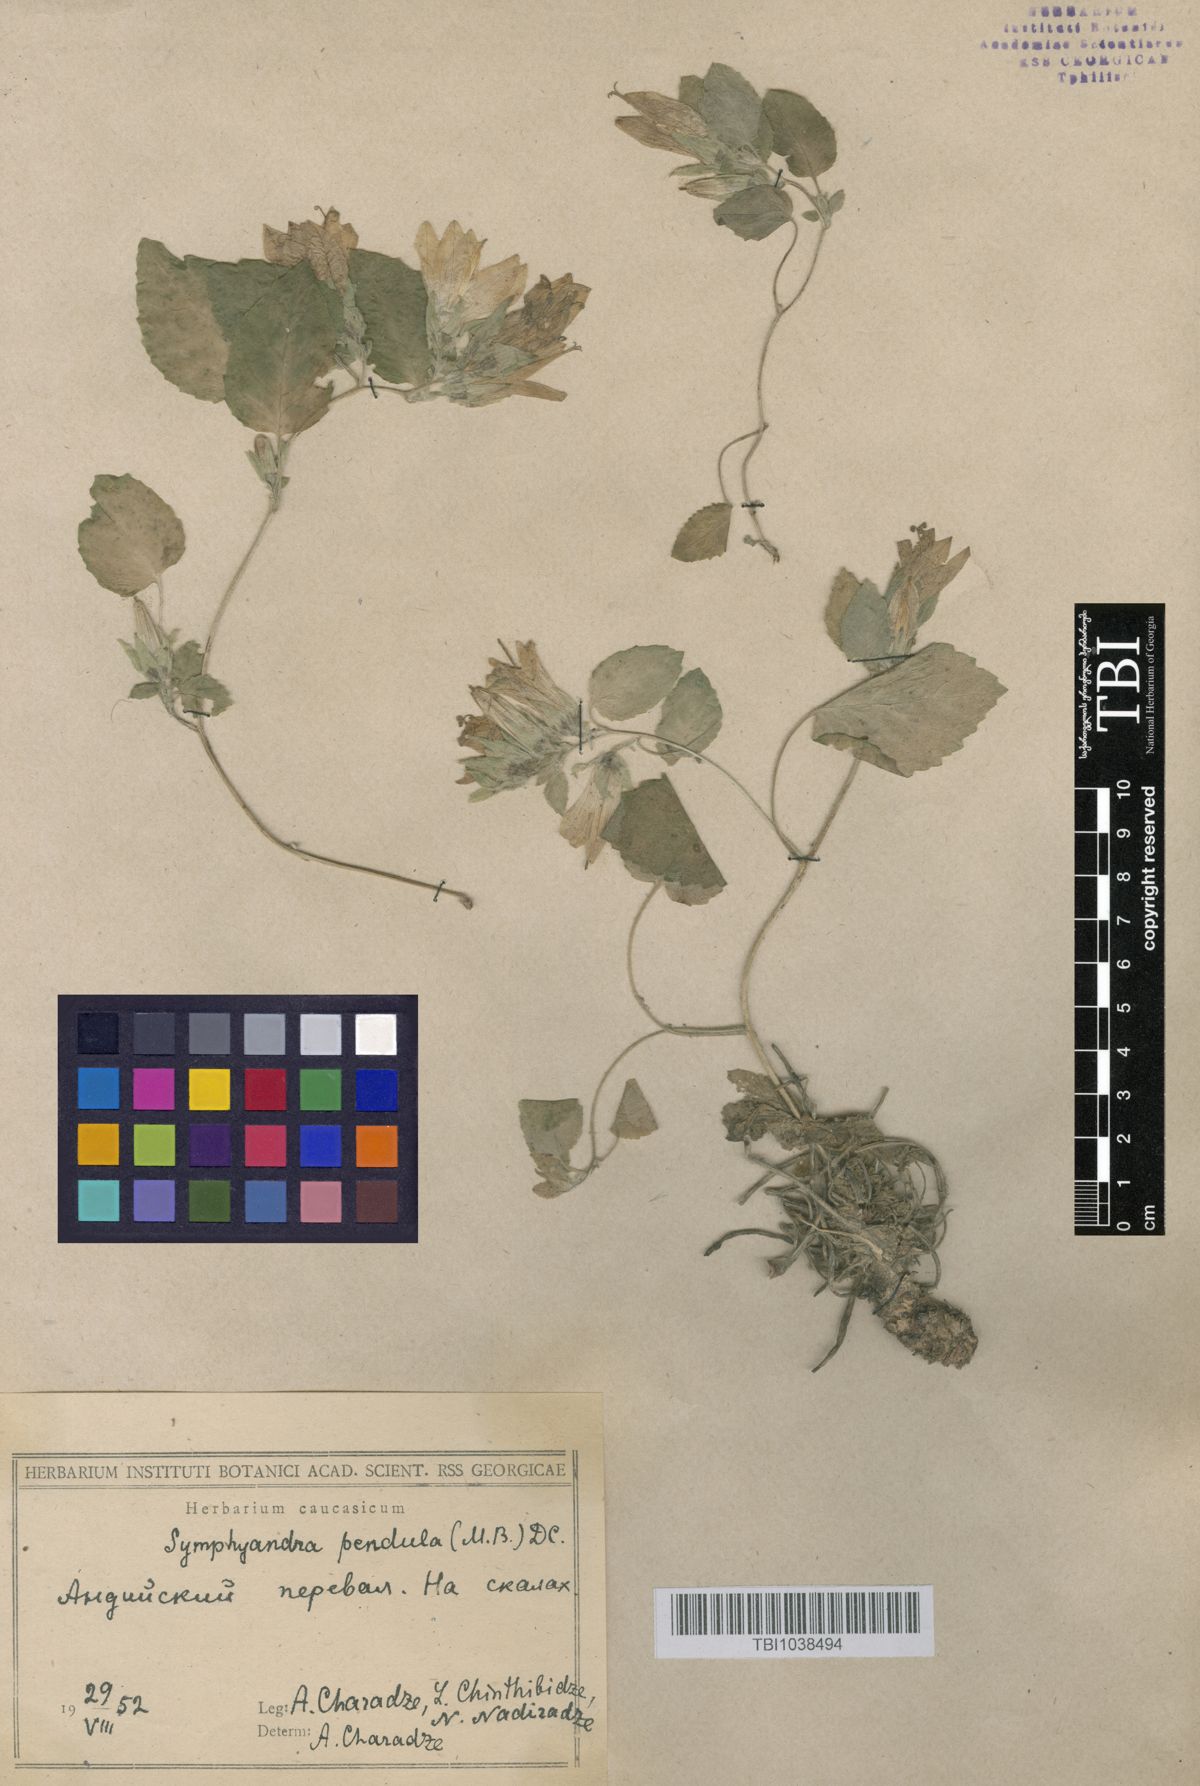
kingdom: Plantae
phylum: Tracheophyta
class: Magnoliopsida
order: Asterales
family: Campanulaceae
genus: Campanula
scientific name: Campanula pendula
